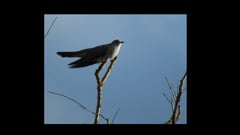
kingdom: Animalia
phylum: Chordata
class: Aves
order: Cuculiformes
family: Cuculidae
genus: Cuculus
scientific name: Cuculus canorus
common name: Common cuckoo
